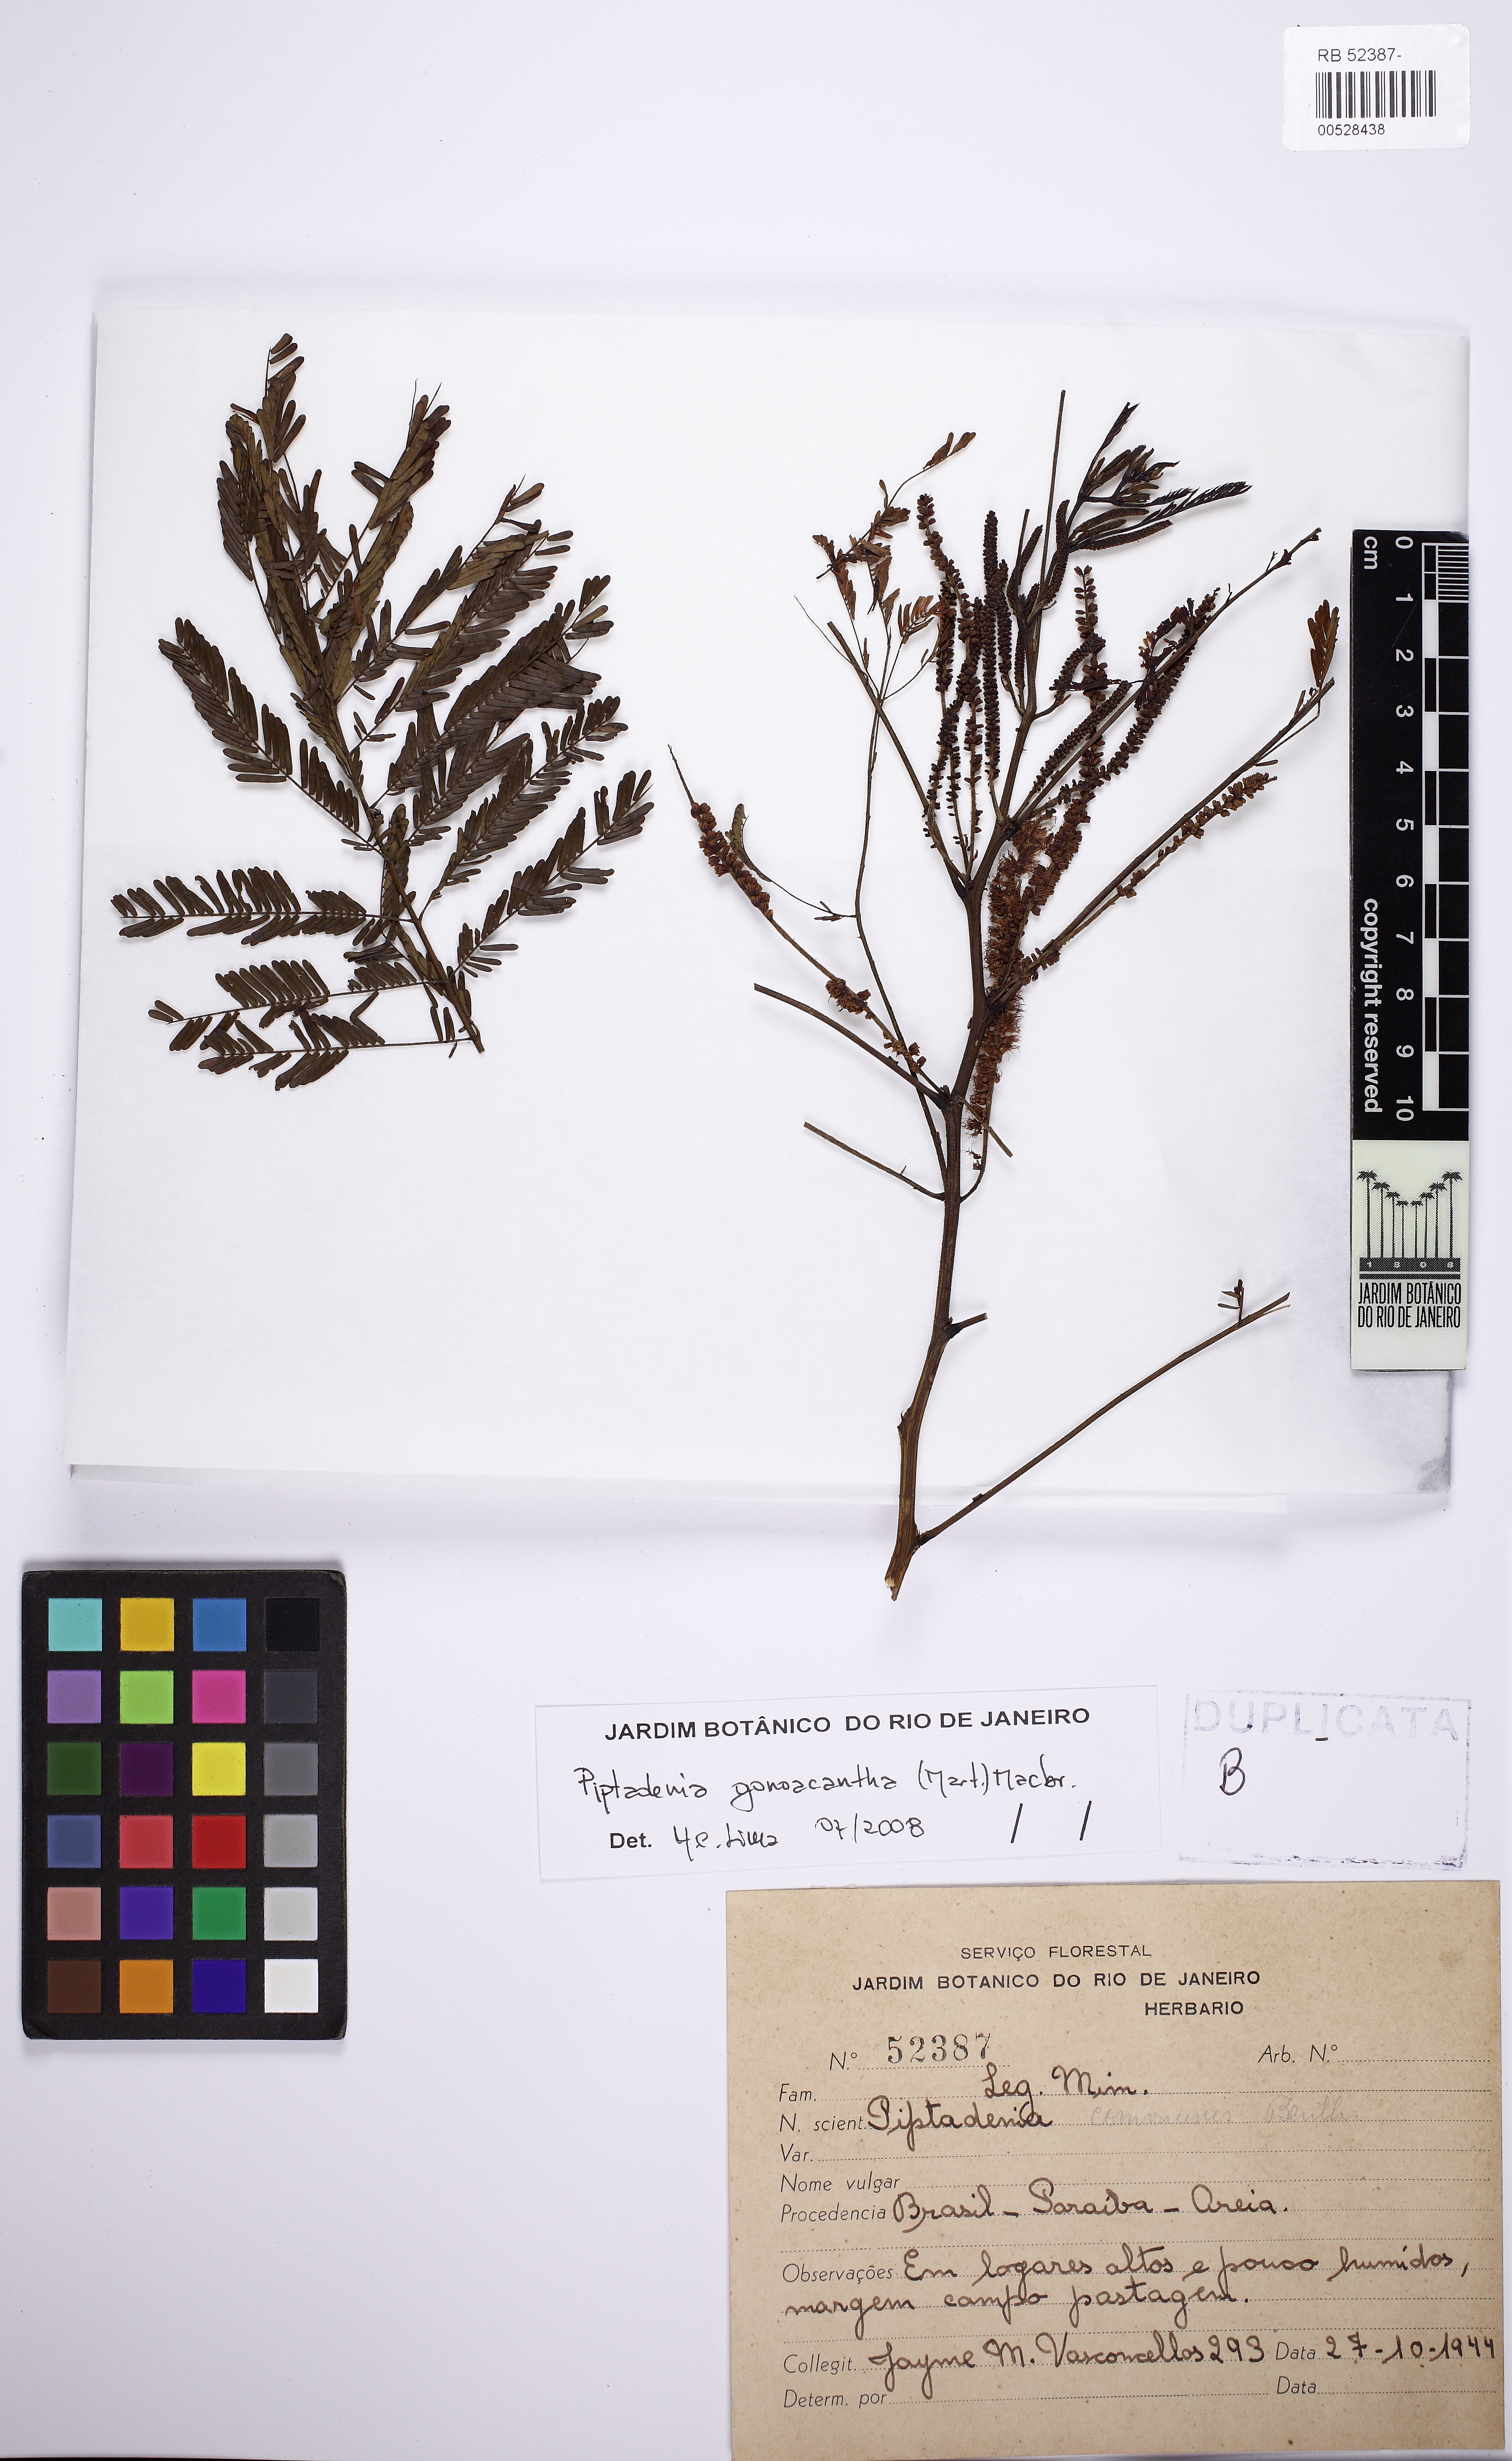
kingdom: Plantae
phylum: Tracheophyta
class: Magnoliopsida
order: Fabales
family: Fabaceae
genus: Piptadenia
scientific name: Piptadenia gonoacantha
